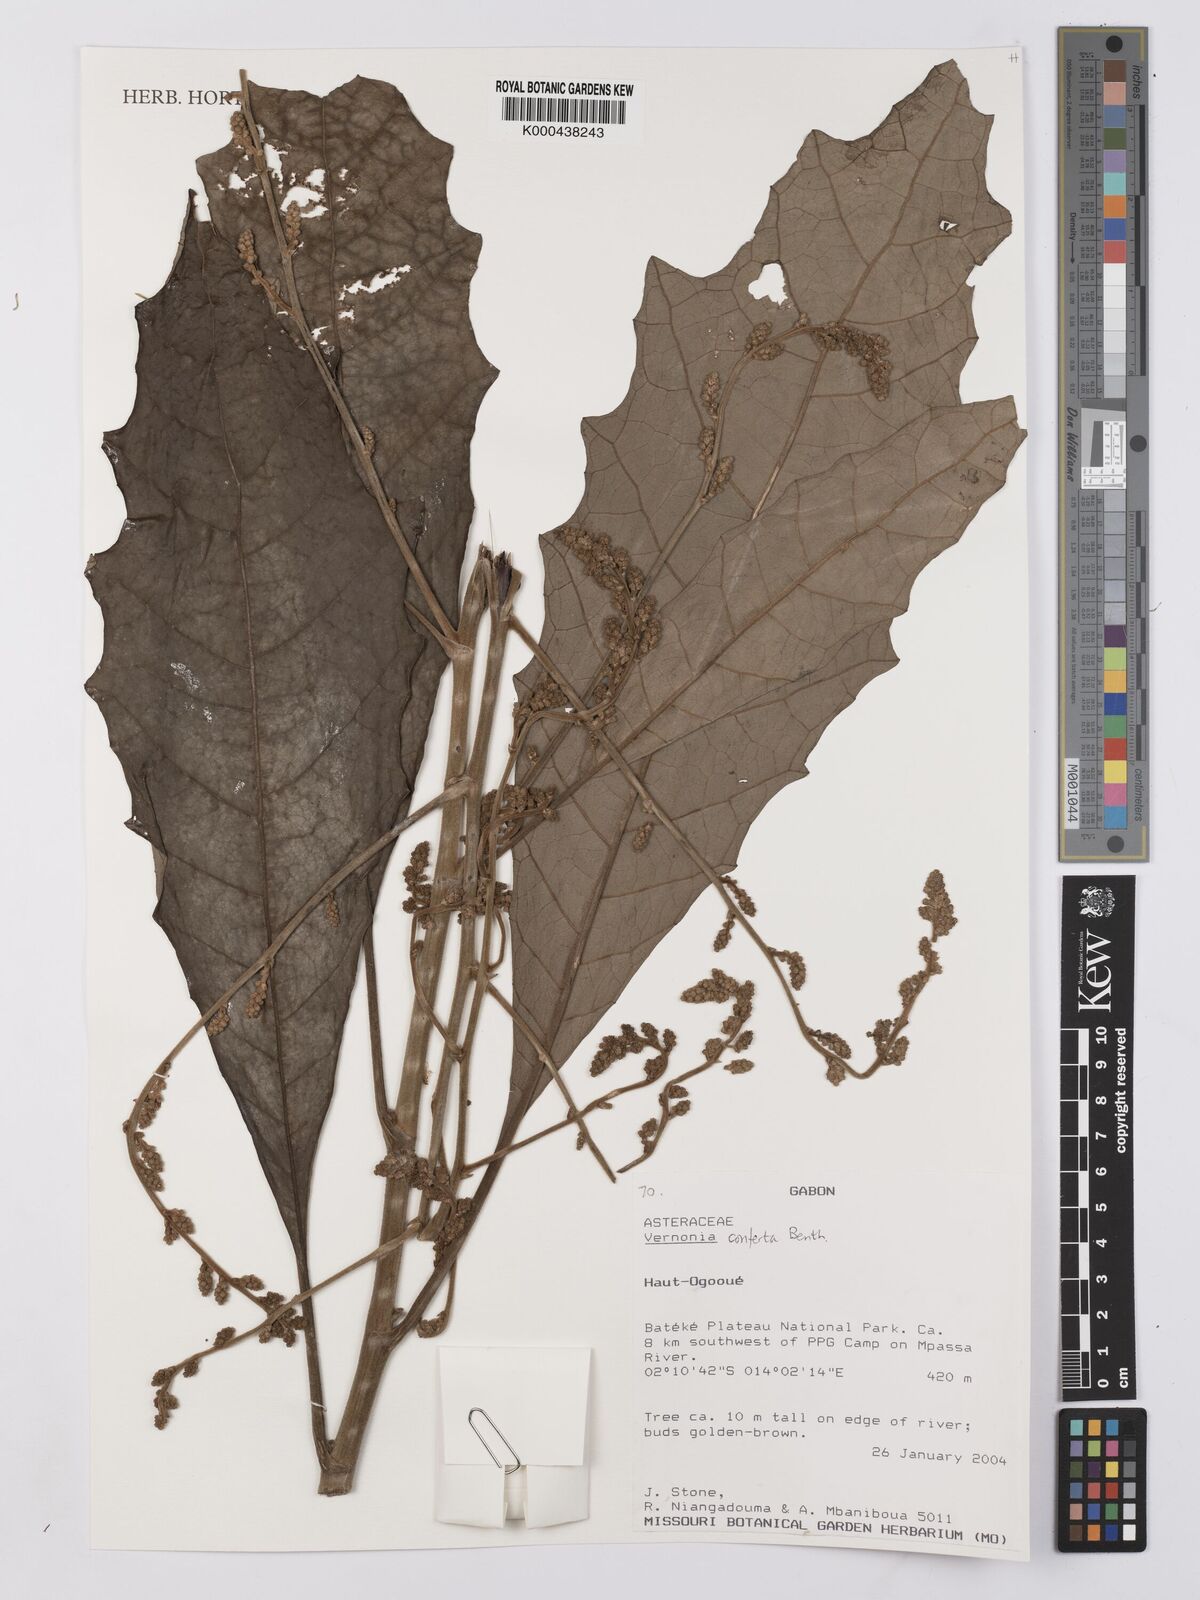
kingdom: Plantae
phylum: Tracheophyta
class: Magnoliopsida
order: Asterales
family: Asteraceae
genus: Monosis
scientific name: Monosis conferta
